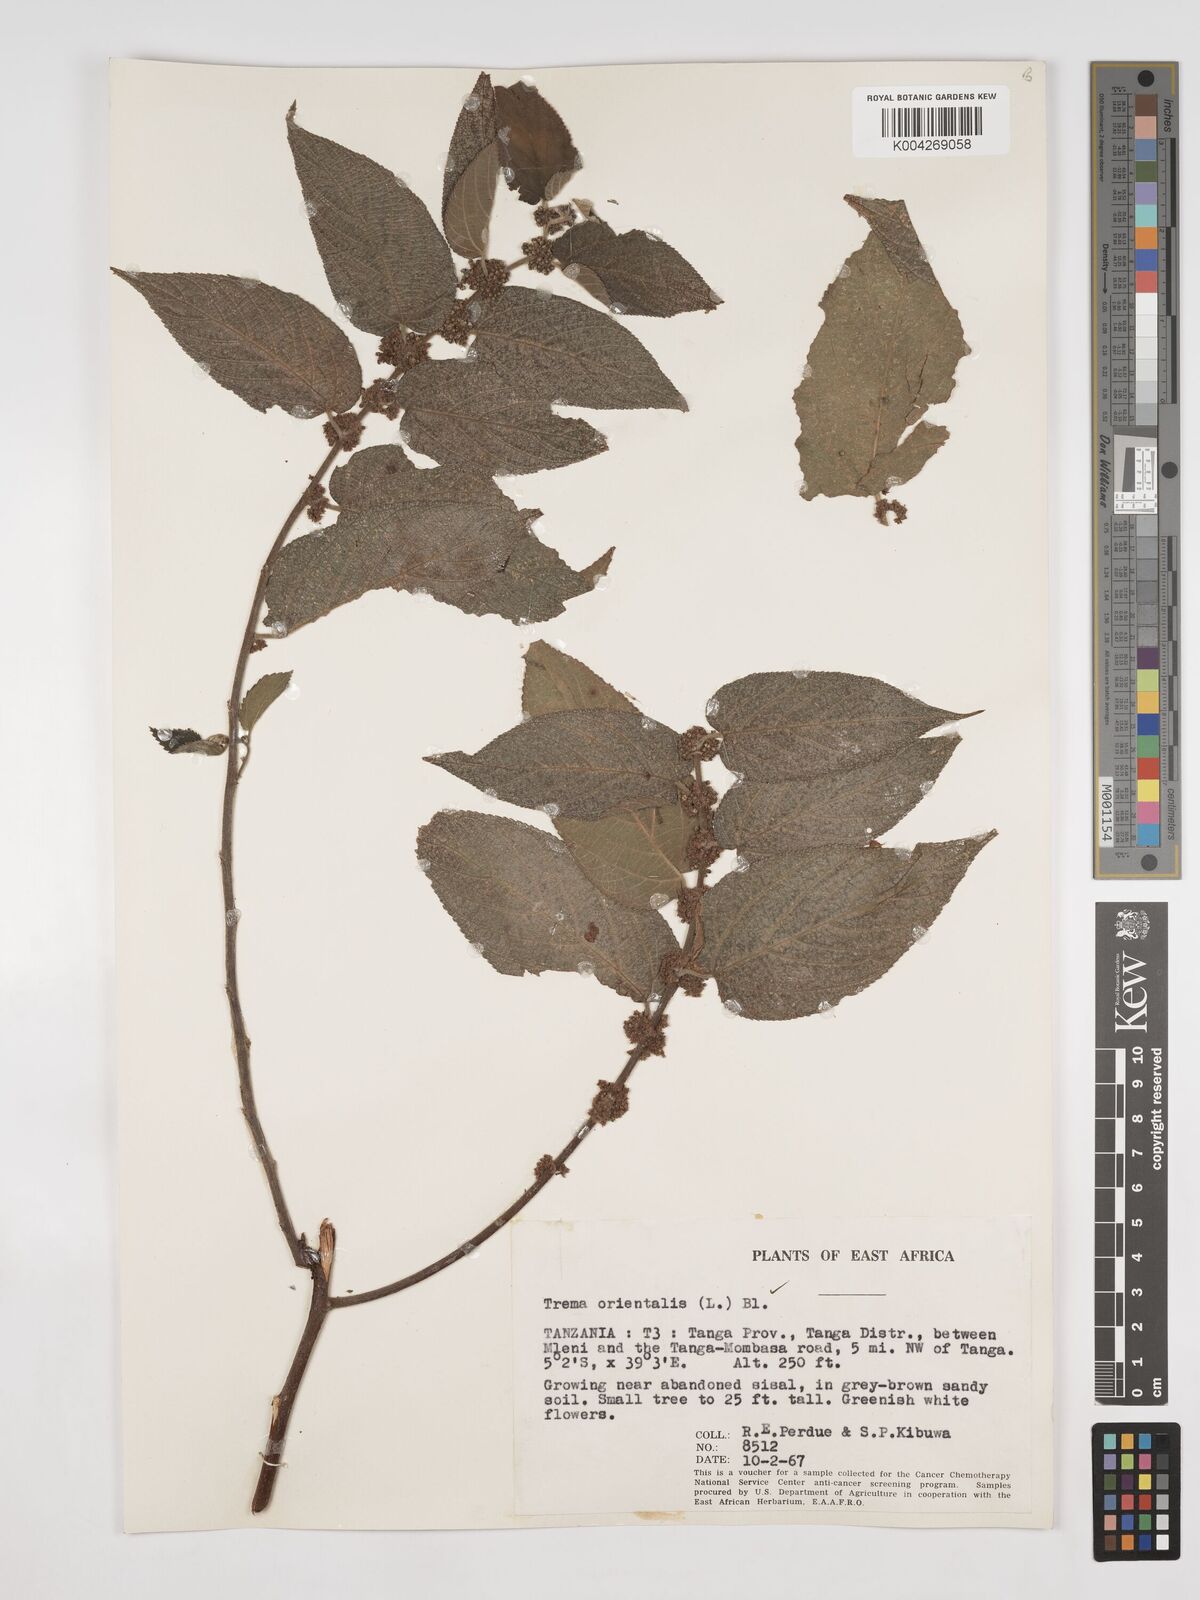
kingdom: Plantae
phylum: Tracheophyta
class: Magnoliopsida
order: Rosales
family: Cannabaceae
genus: Trema
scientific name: Trema orientale
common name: Indian charcoal tree
